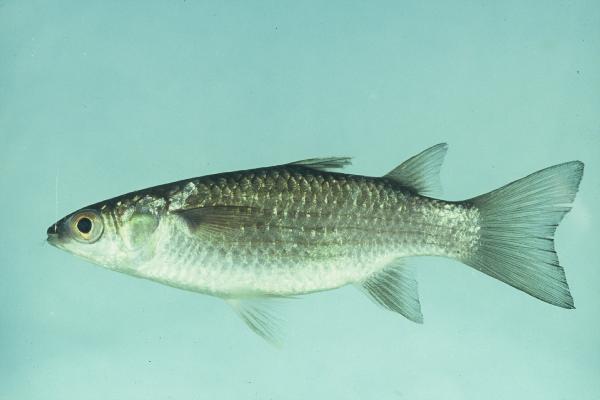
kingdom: Animalia
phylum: Chordata
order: Mugiliformes
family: Mugilidae
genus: Ellochelon
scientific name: Ellochelon vaigiensis
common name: Squaretail mullet
